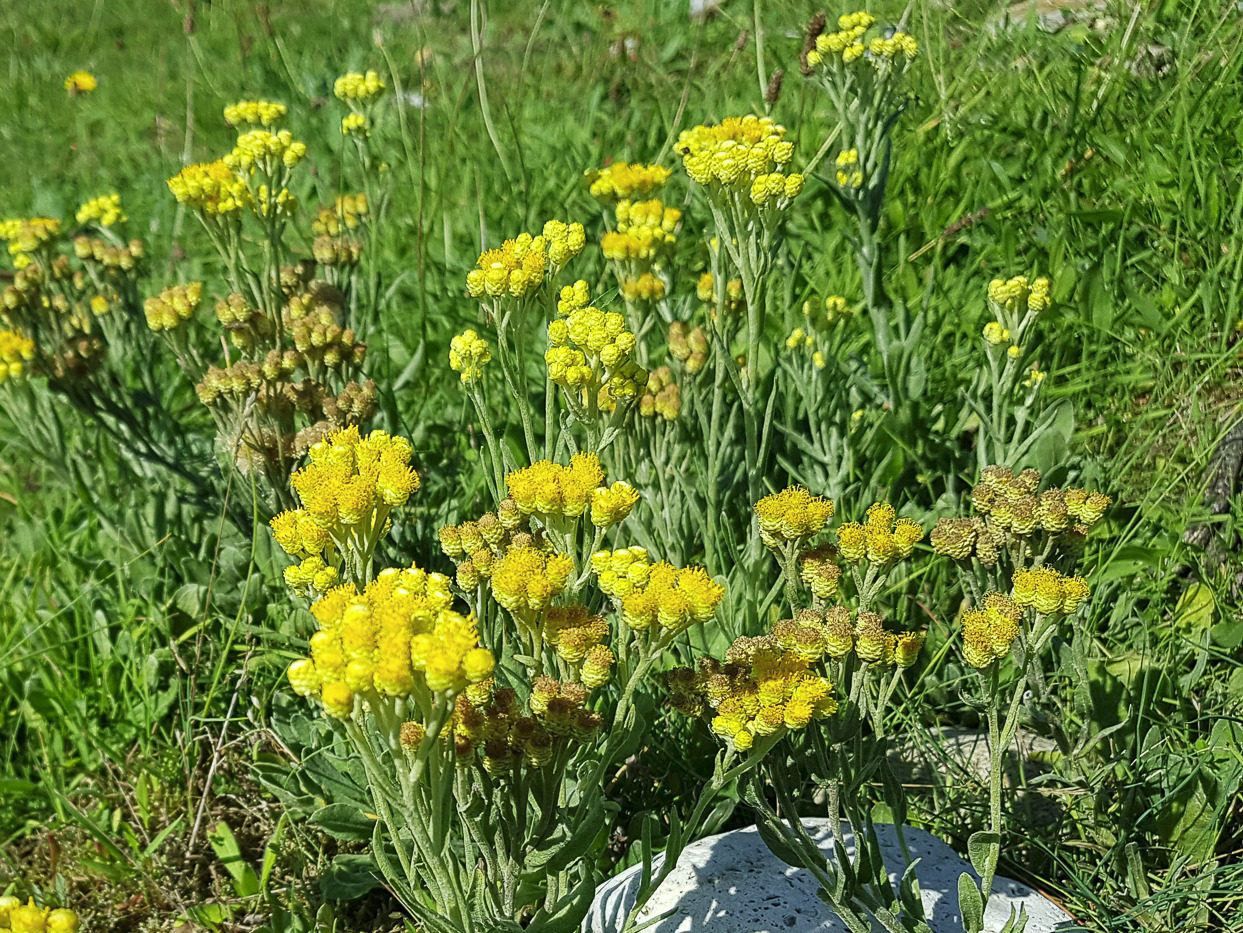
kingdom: Plantae
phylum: Tracheophyta
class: Magnoliopsida
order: Asterales
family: Asteraceae
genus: Helichrysum
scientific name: Helichrysum arenarium
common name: Gul evighedsblomst
